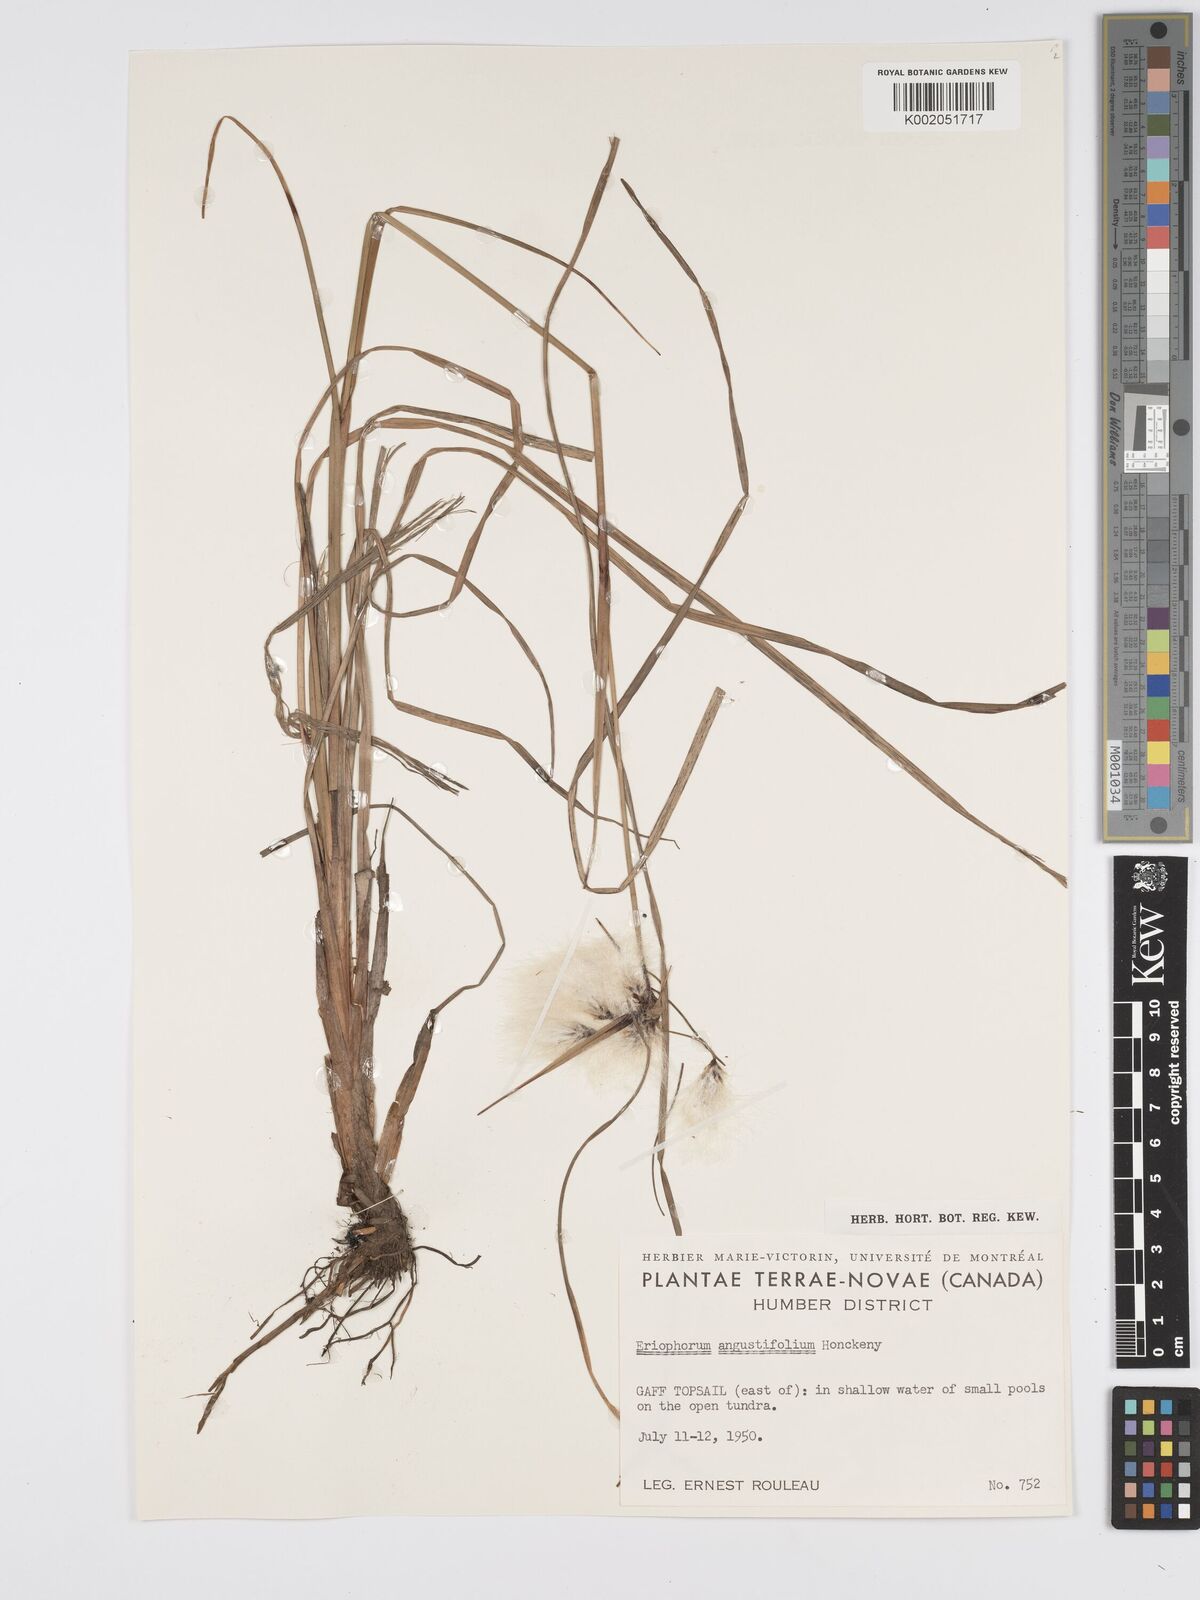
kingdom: Plantae
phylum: Tracheophyta
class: Liliopsida
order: Poales
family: Cyperaceae
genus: Eriophorum
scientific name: Eriophorum angustifolium
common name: Common cottongrass
